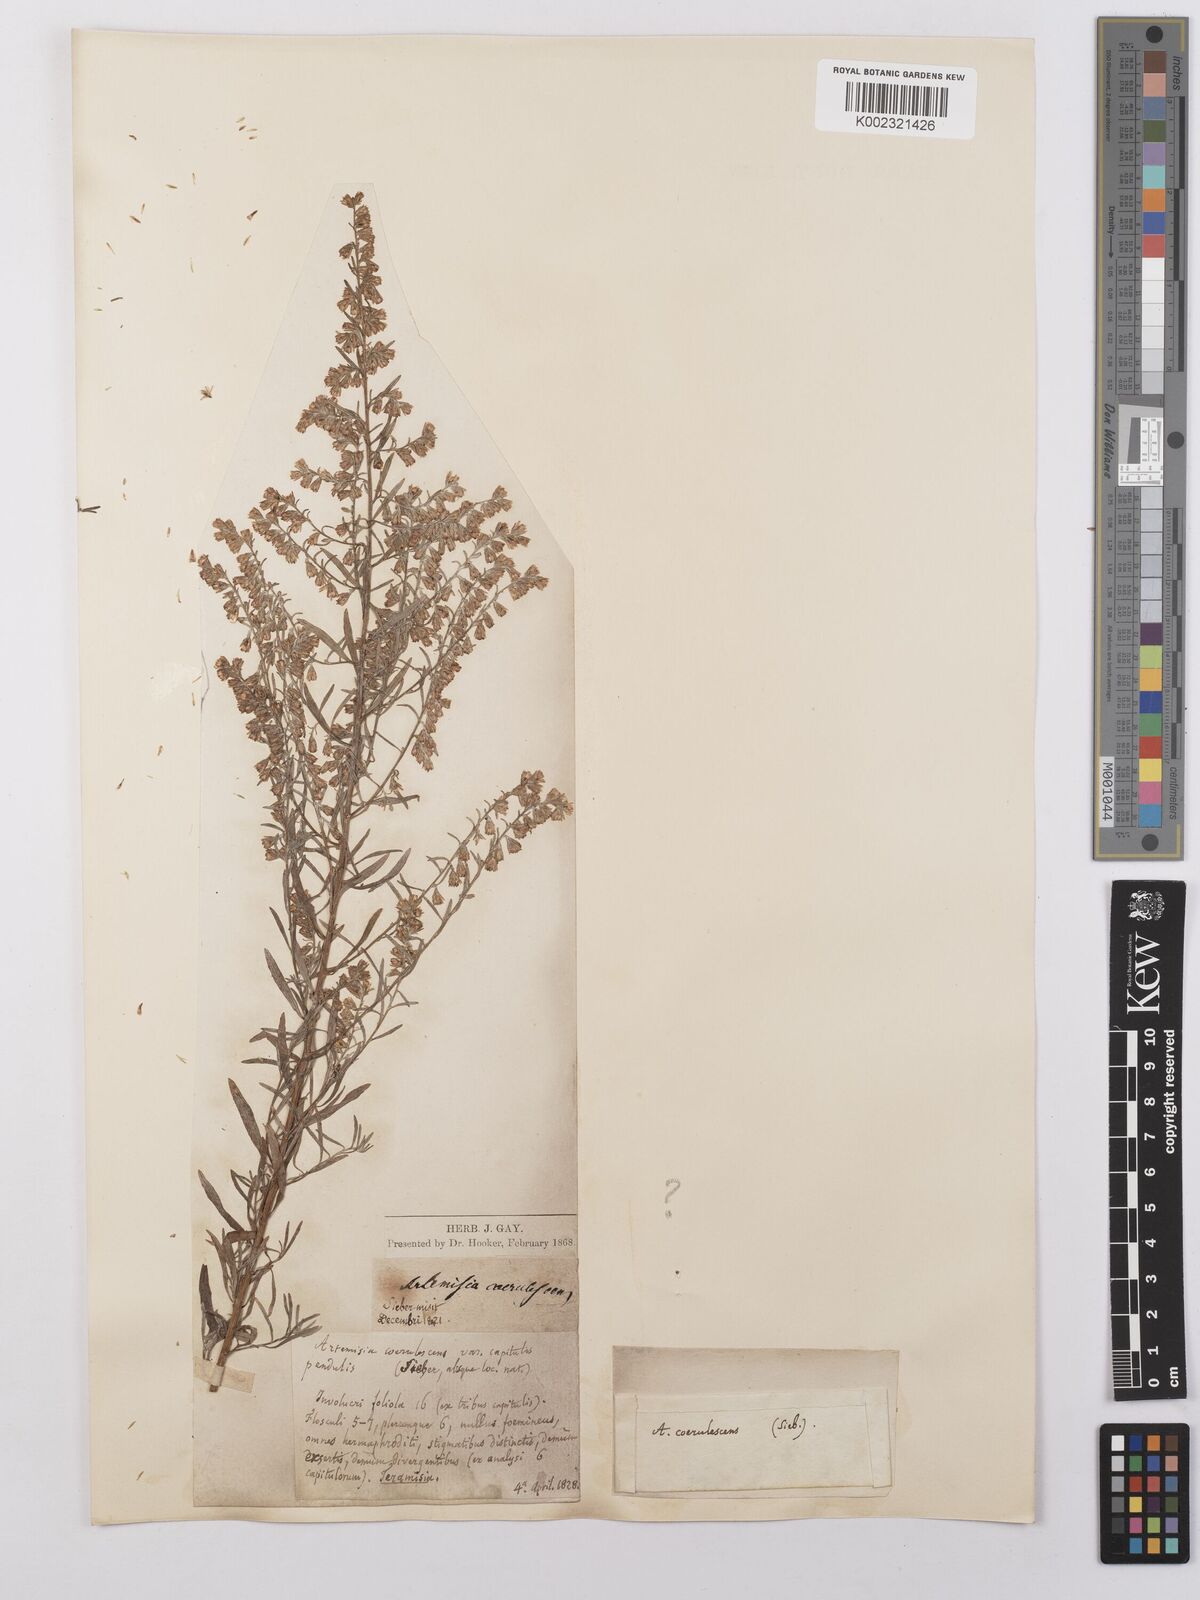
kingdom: Plantae
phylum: Tracheophyta
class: Magnoliopsida
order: Asterales
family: Asteraceae
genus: Artemisia
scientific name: Artemisia caerulescens
